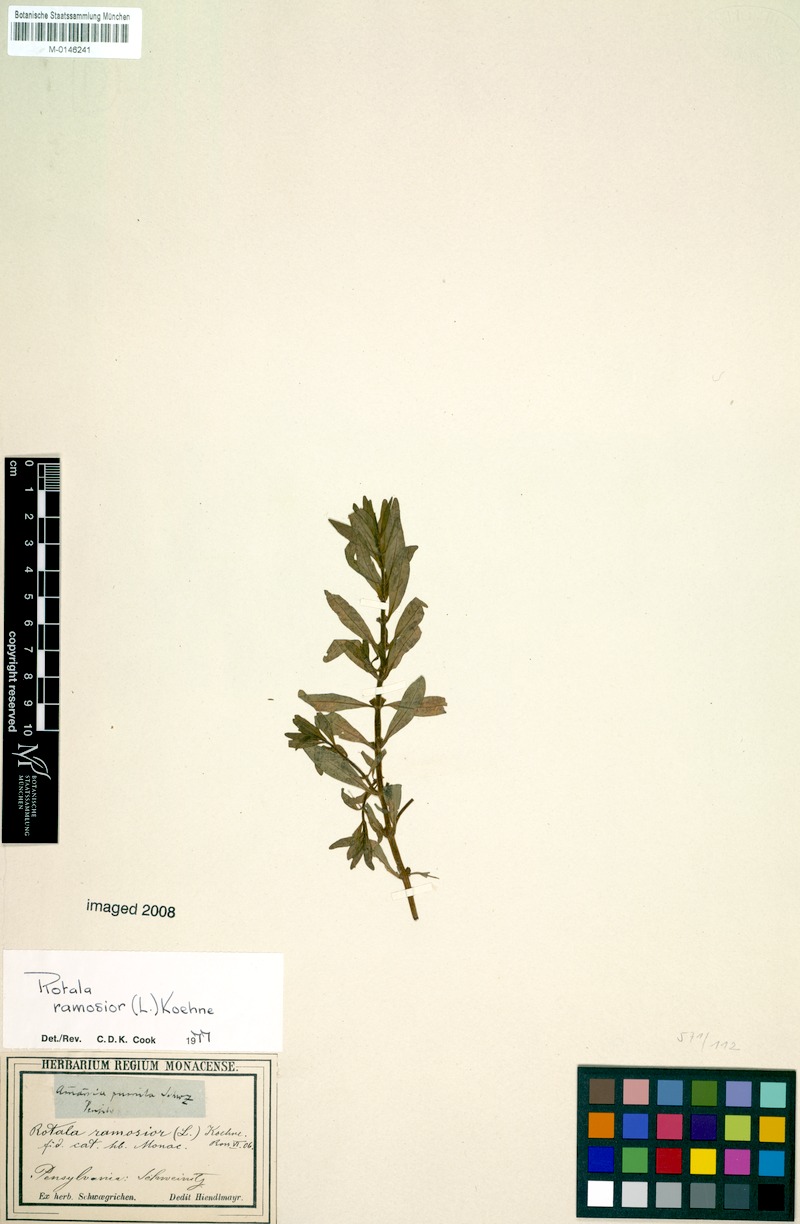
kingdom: Plantae
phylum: Tracheophyta
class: Magnoliopsida
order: Myrtales
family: Lythraceae
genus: Rotala
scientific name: Rotala ramosior
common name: Lowland rotala
